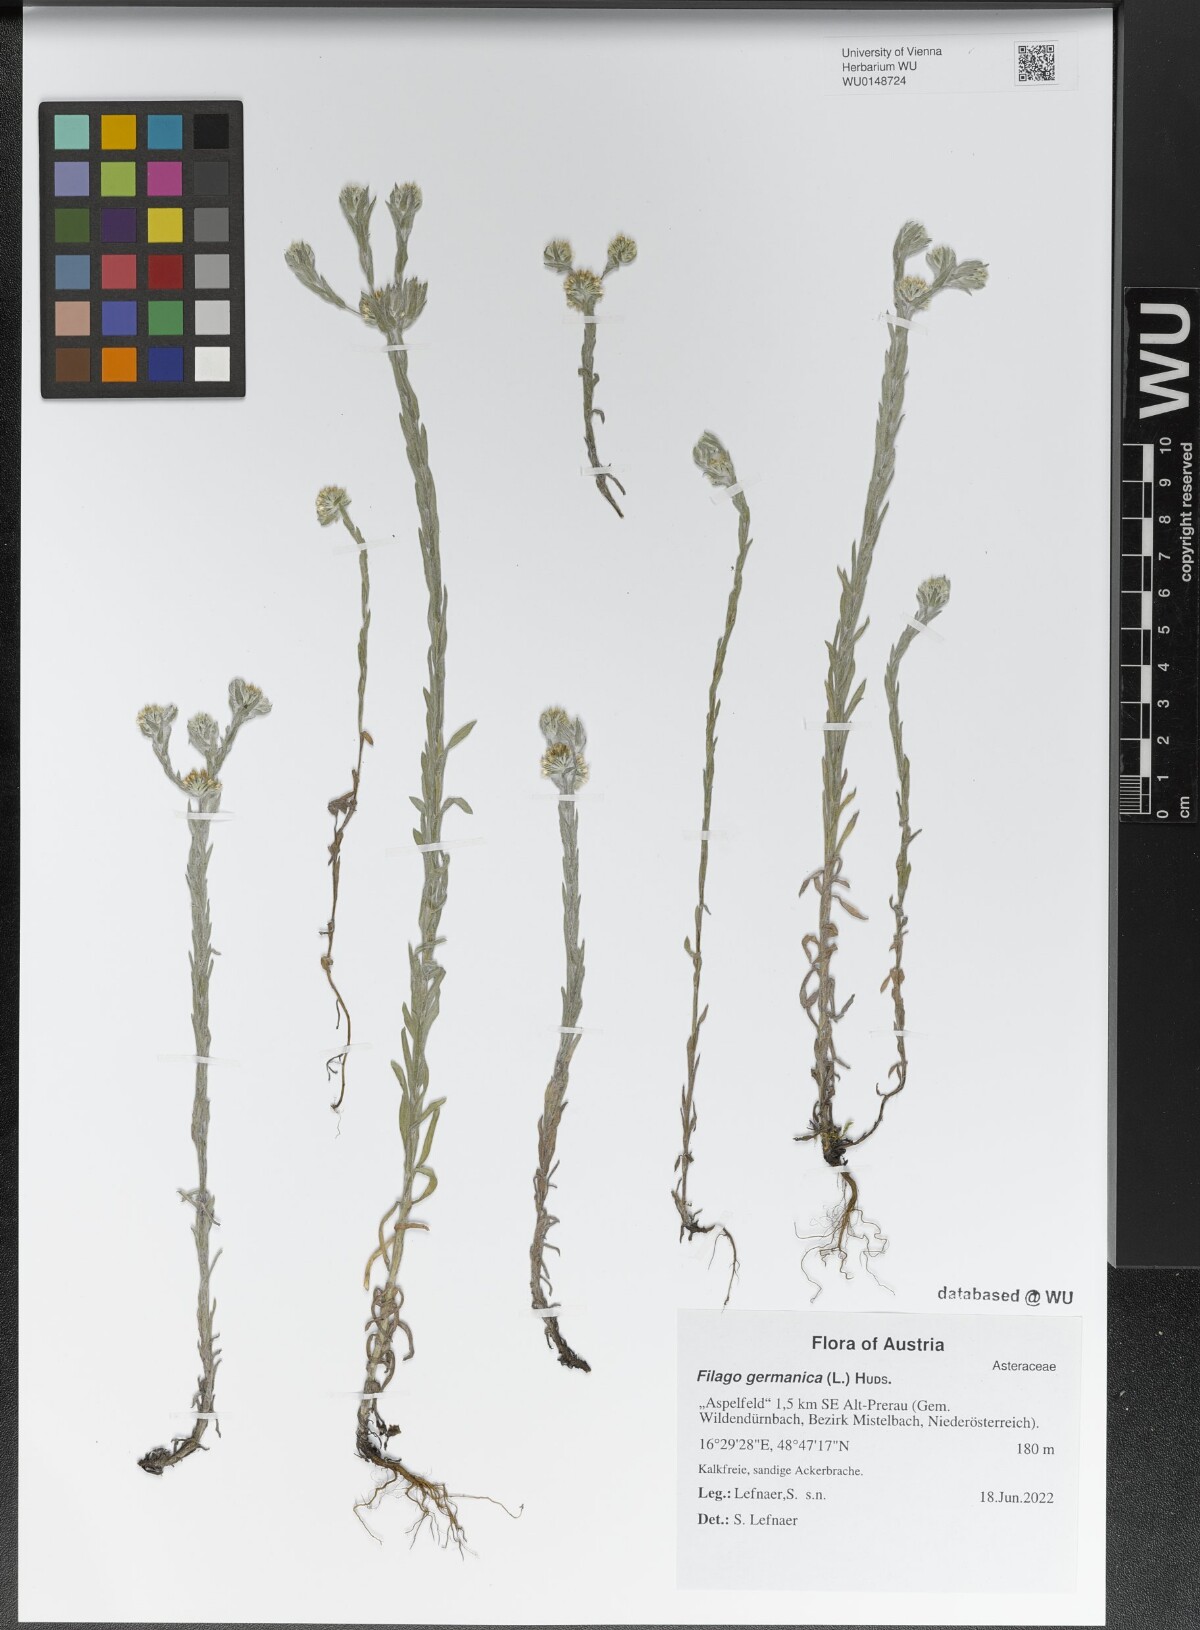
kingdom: Plantae
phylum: Tracheophyta
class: Magnoliopsida
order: Asterales
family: Asteraceae
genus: Filago
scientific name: Filago germanica
